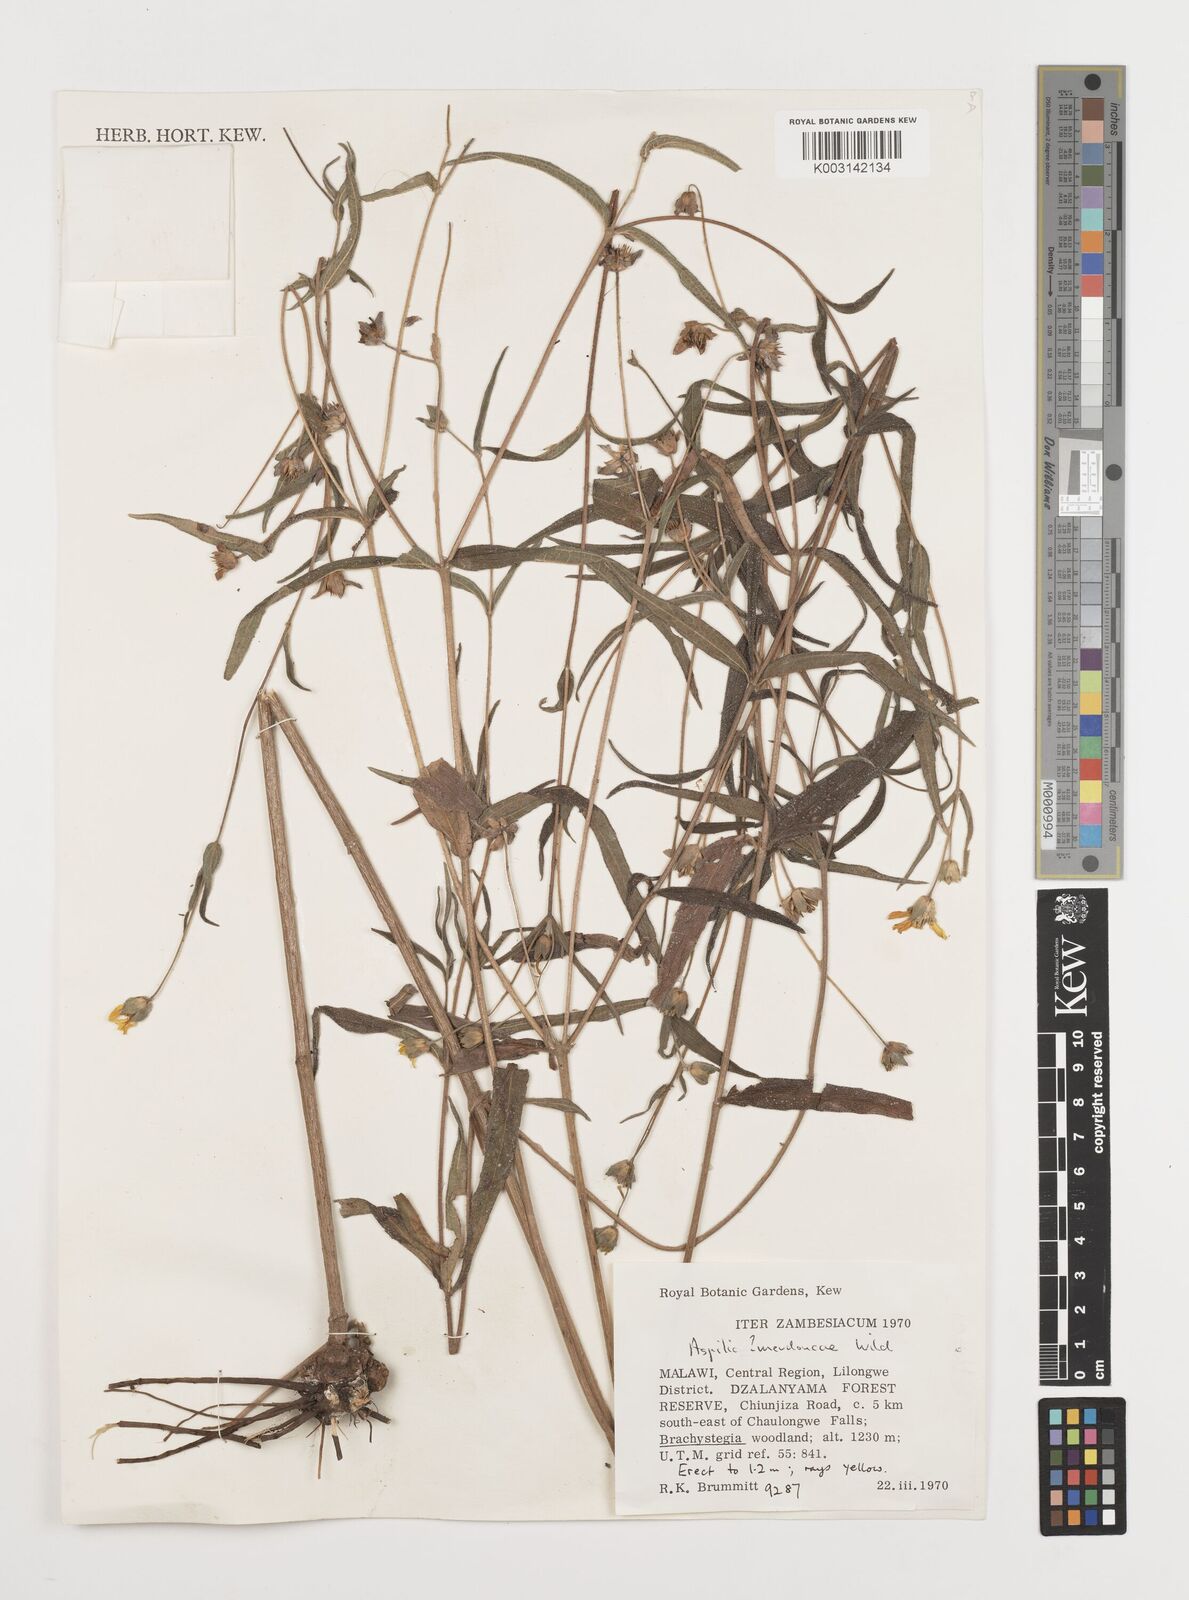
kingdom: Plantae
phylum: Tracheophyta
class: Magnoliopsida
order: Asterales
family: Asteraceae
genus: Aspilia
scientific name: Aspilia mendoncae
